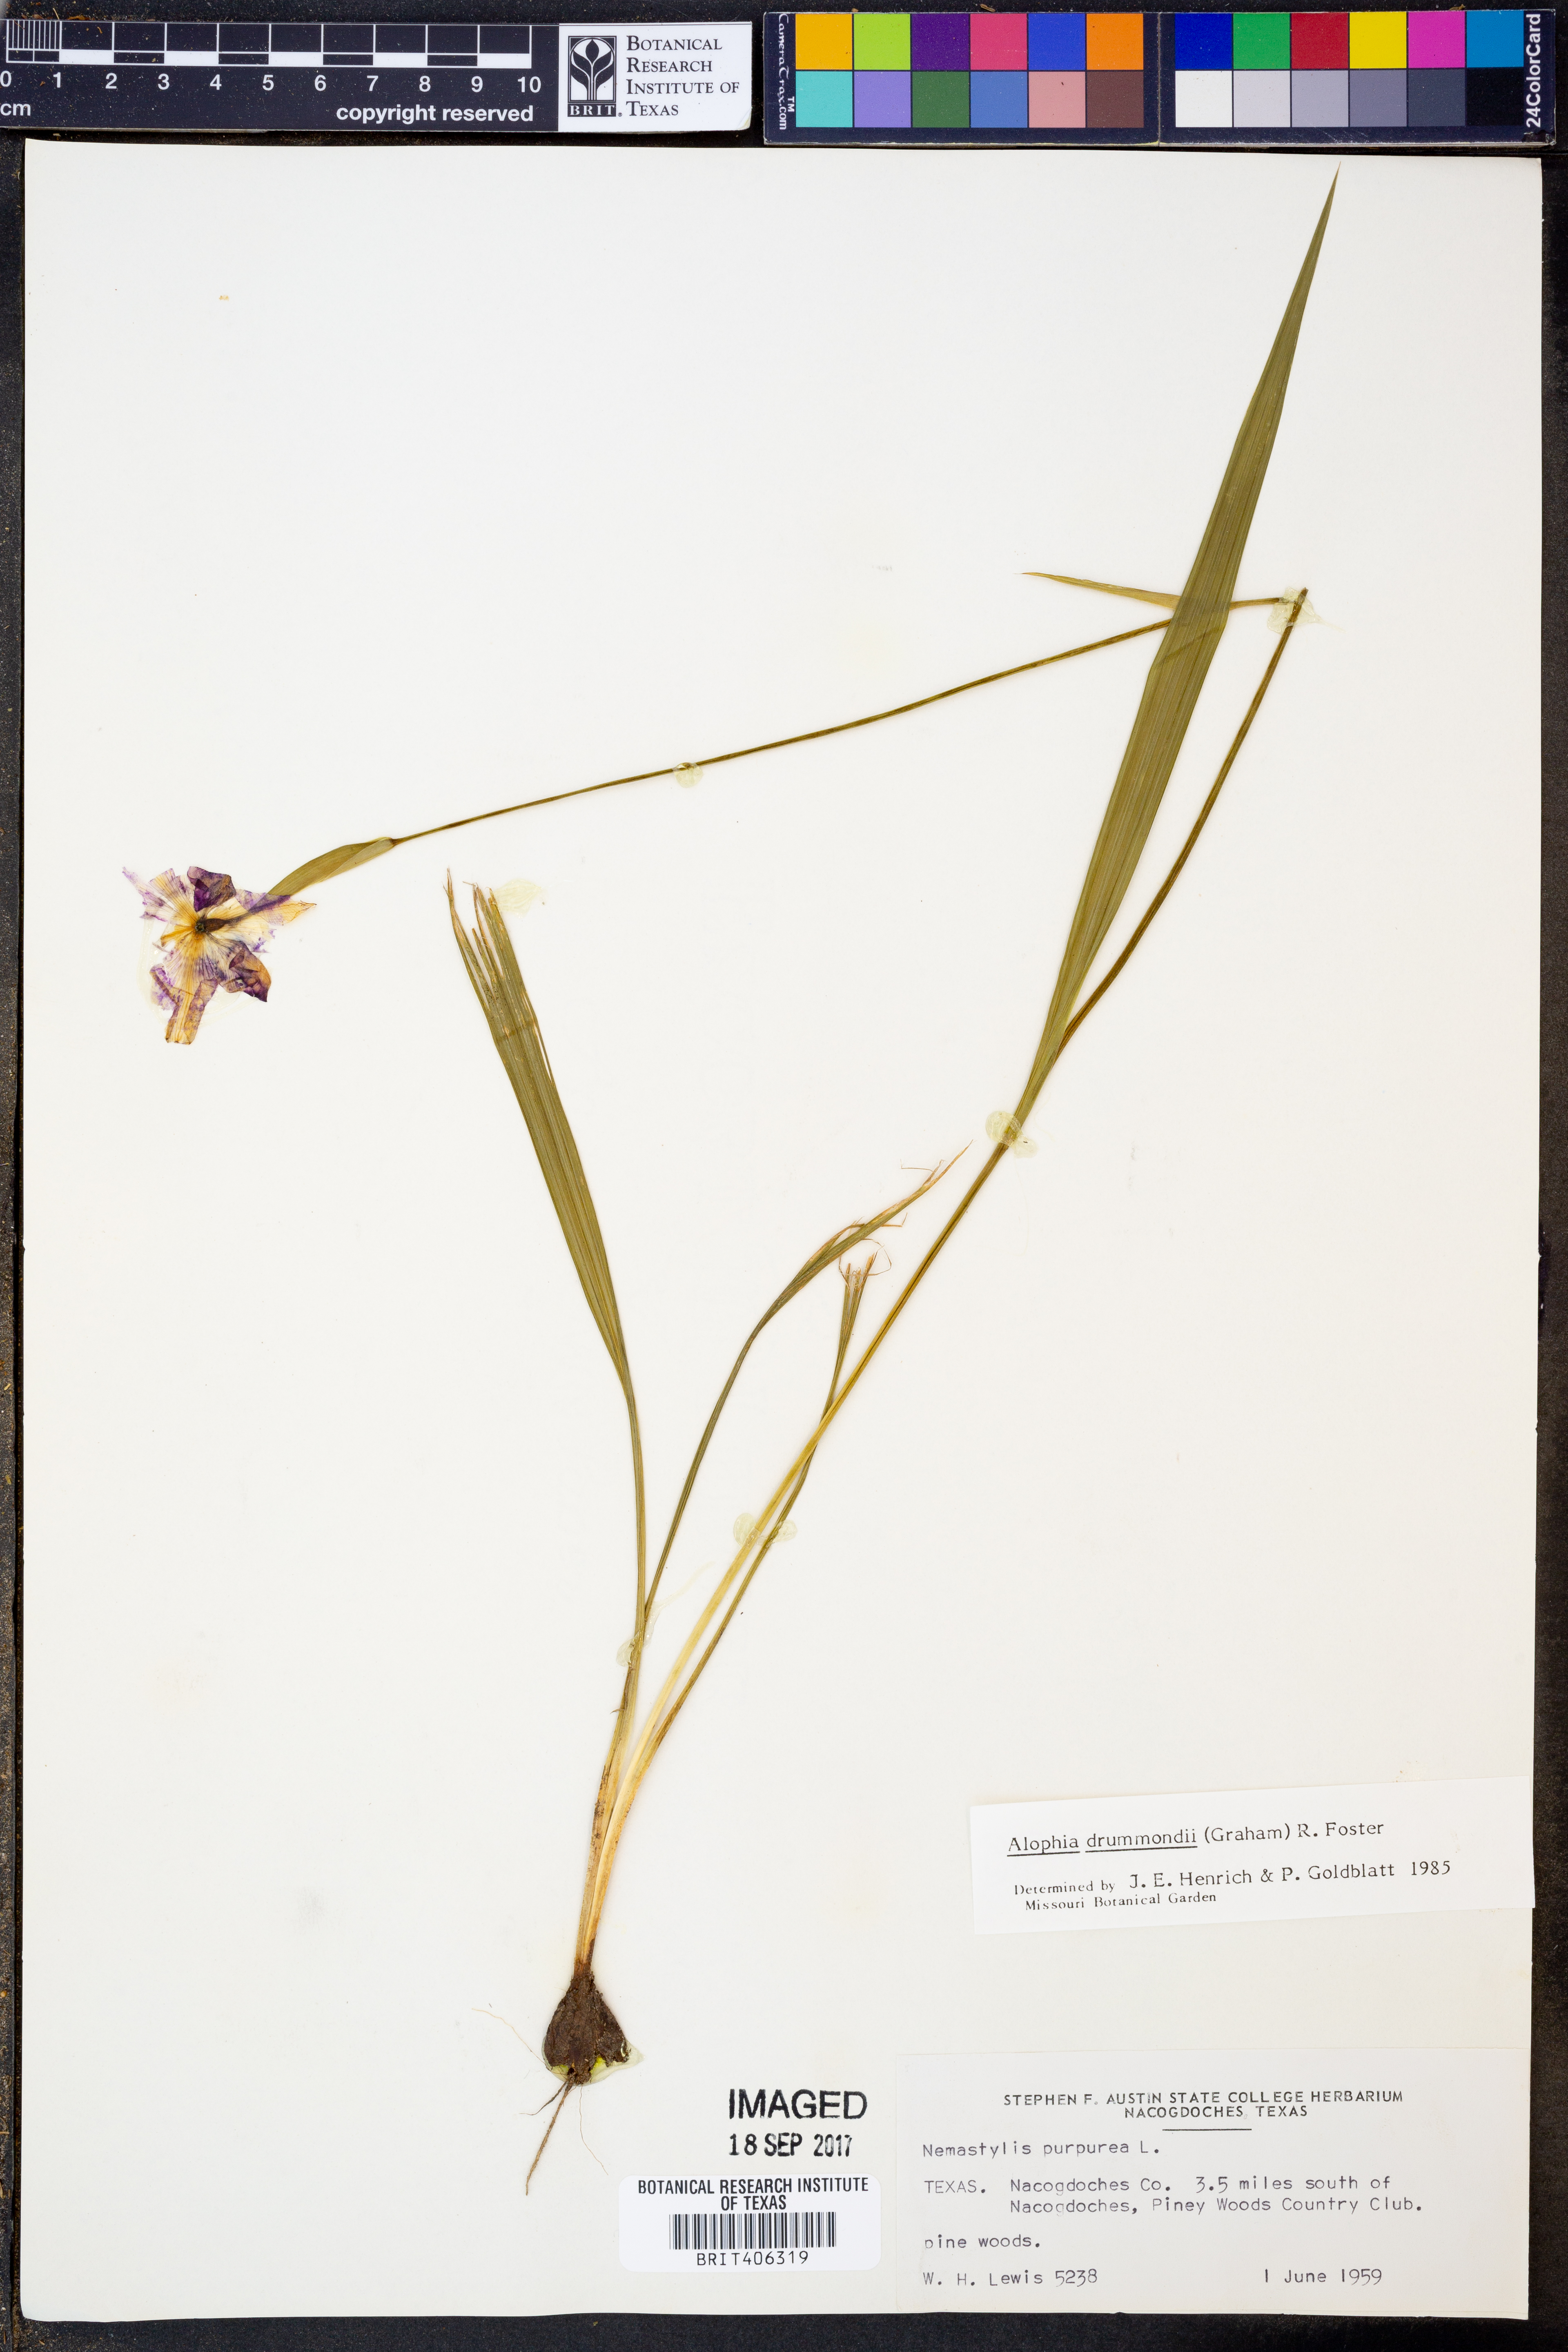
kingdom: Plantae
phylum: Tracheophyta
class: Liliopsida
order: Asparagales
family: Iridaceae
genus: Alophia
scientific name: Alophia drummondii
